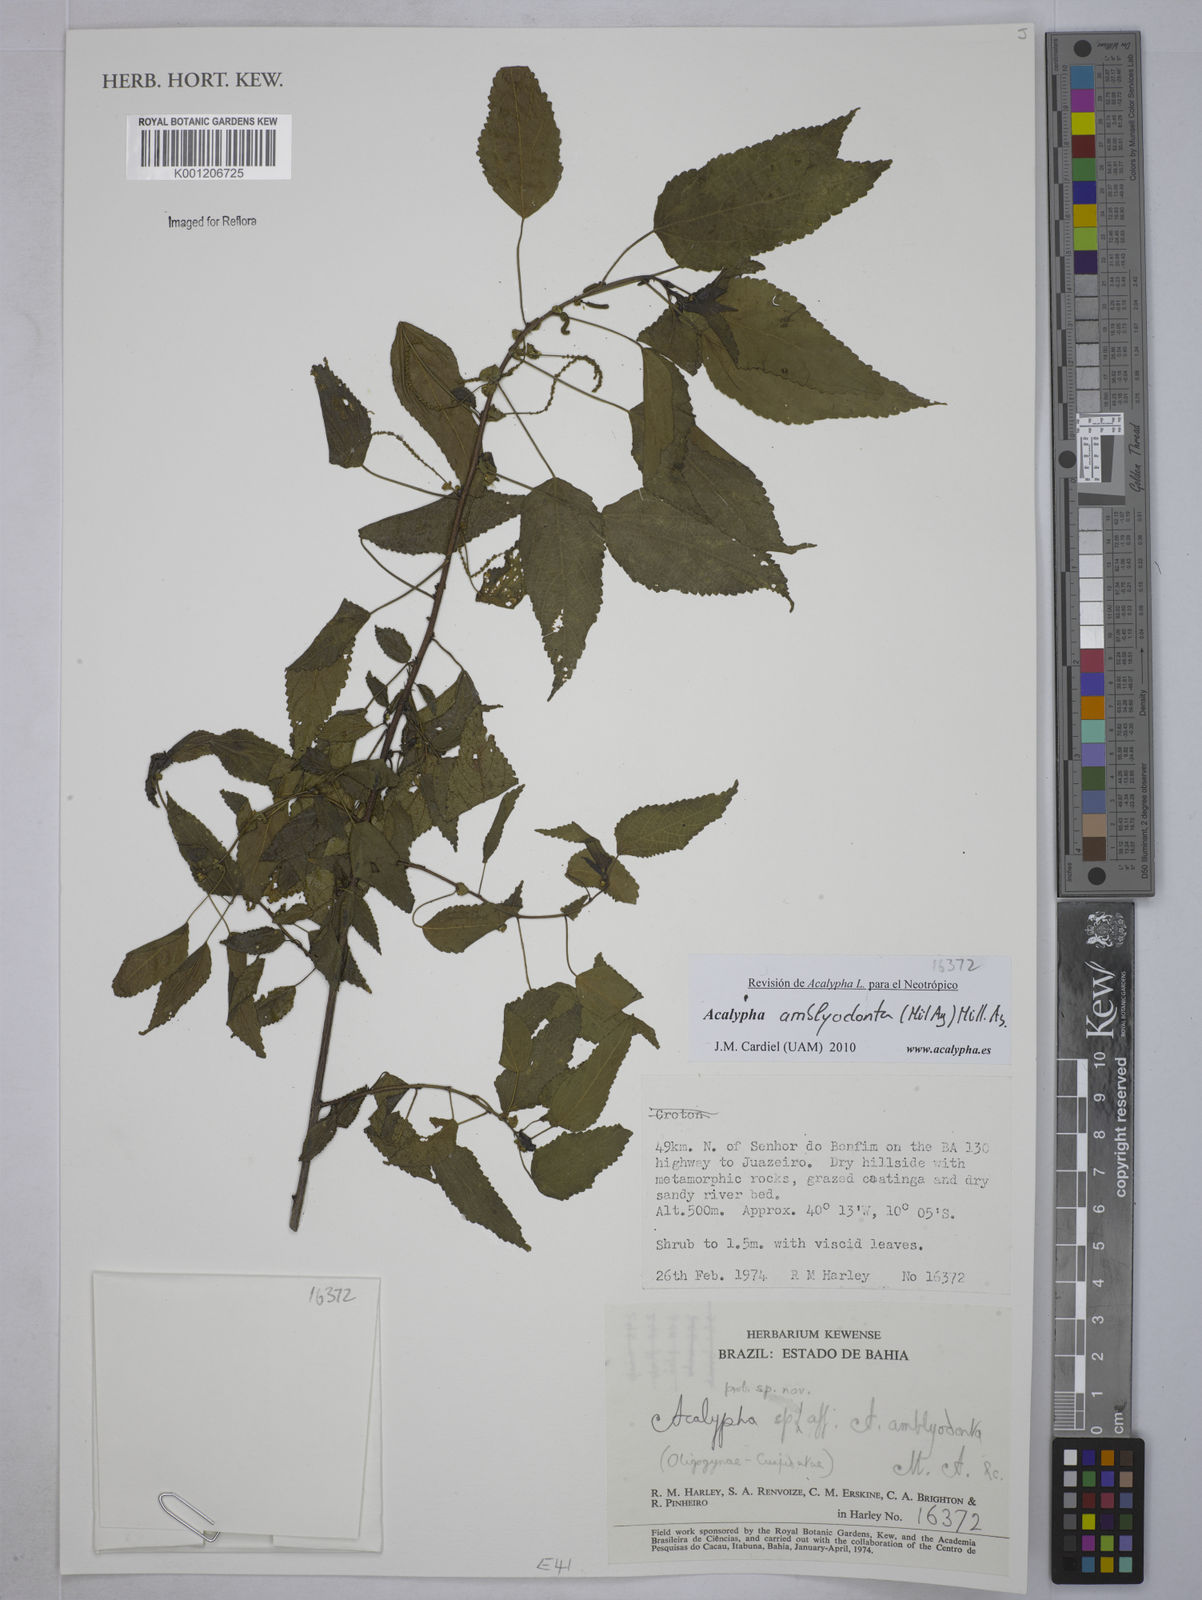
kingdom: Plantae
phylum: Tracheophyta
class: Magnoliopsida
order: Malpighiales
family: Euphorbiaceae
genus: Acalypha
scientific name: Acalypha
